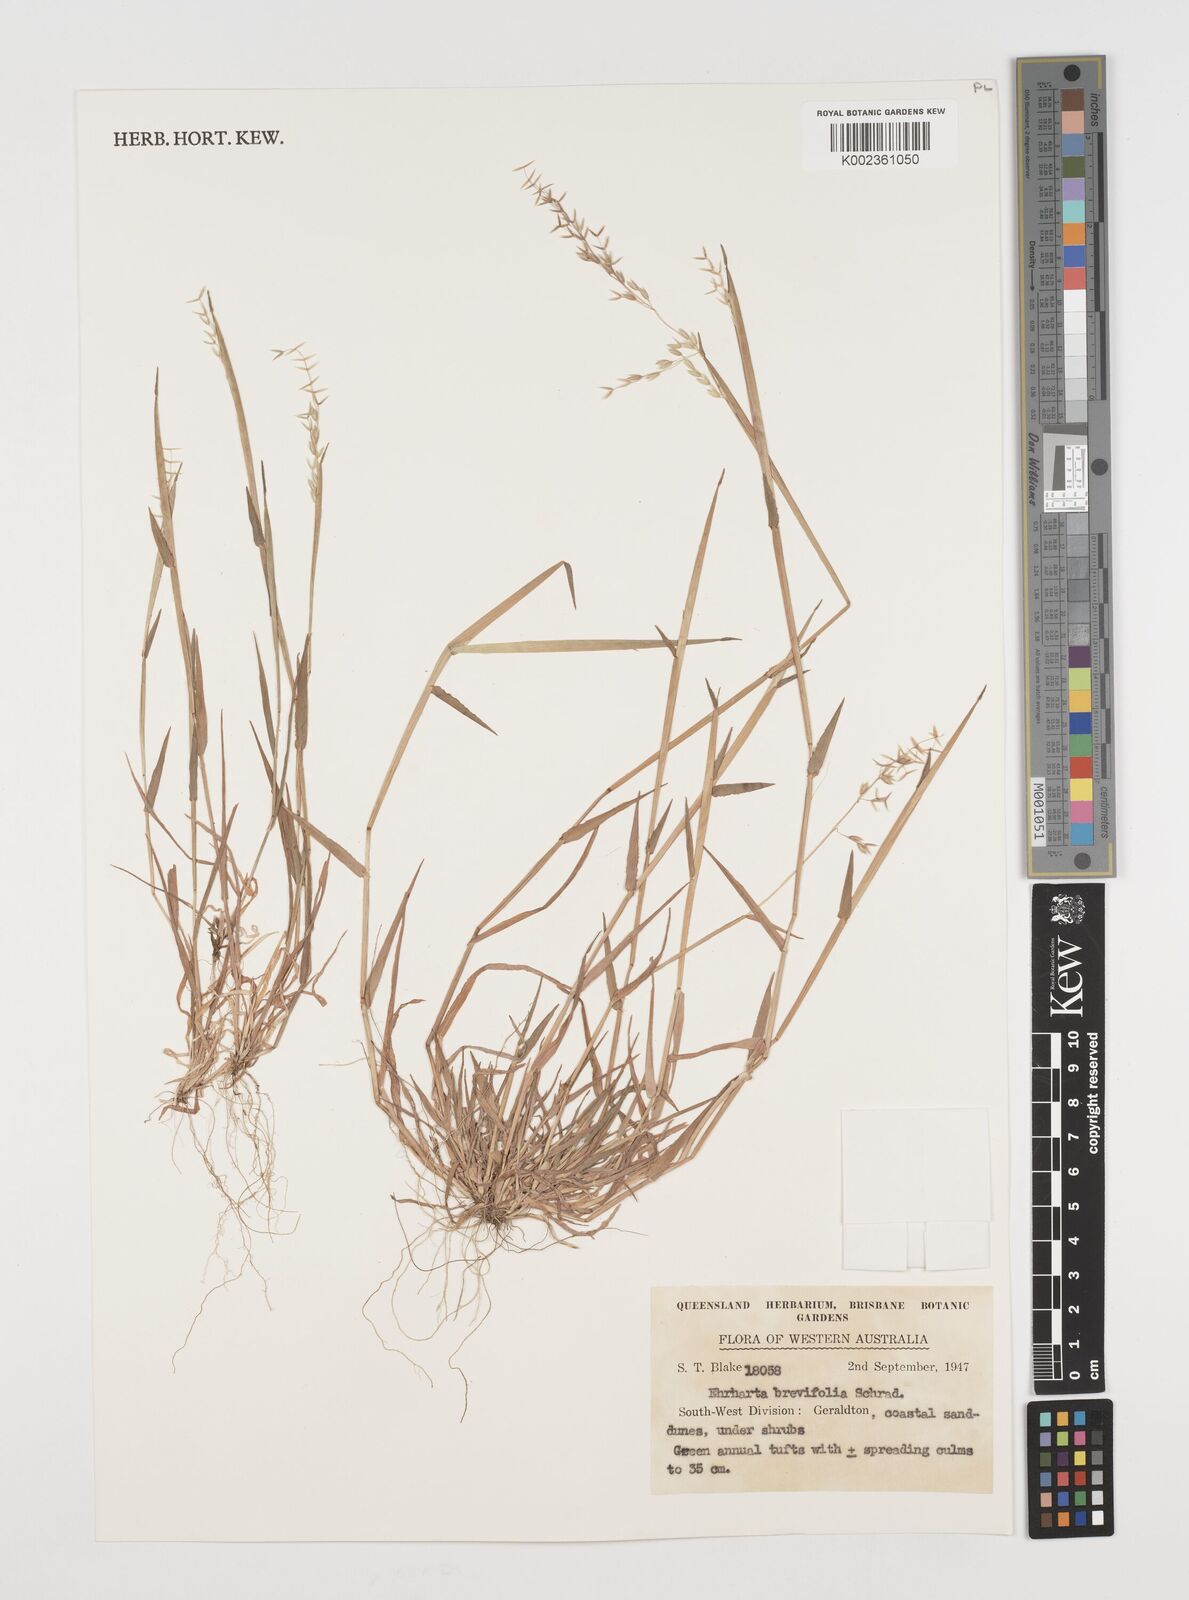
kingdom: Plantae
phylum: Tracheophyta
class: Liliopsida
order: Poales
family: Poaceae
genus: Ehrharta
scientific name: Ehrharta brevifolia
